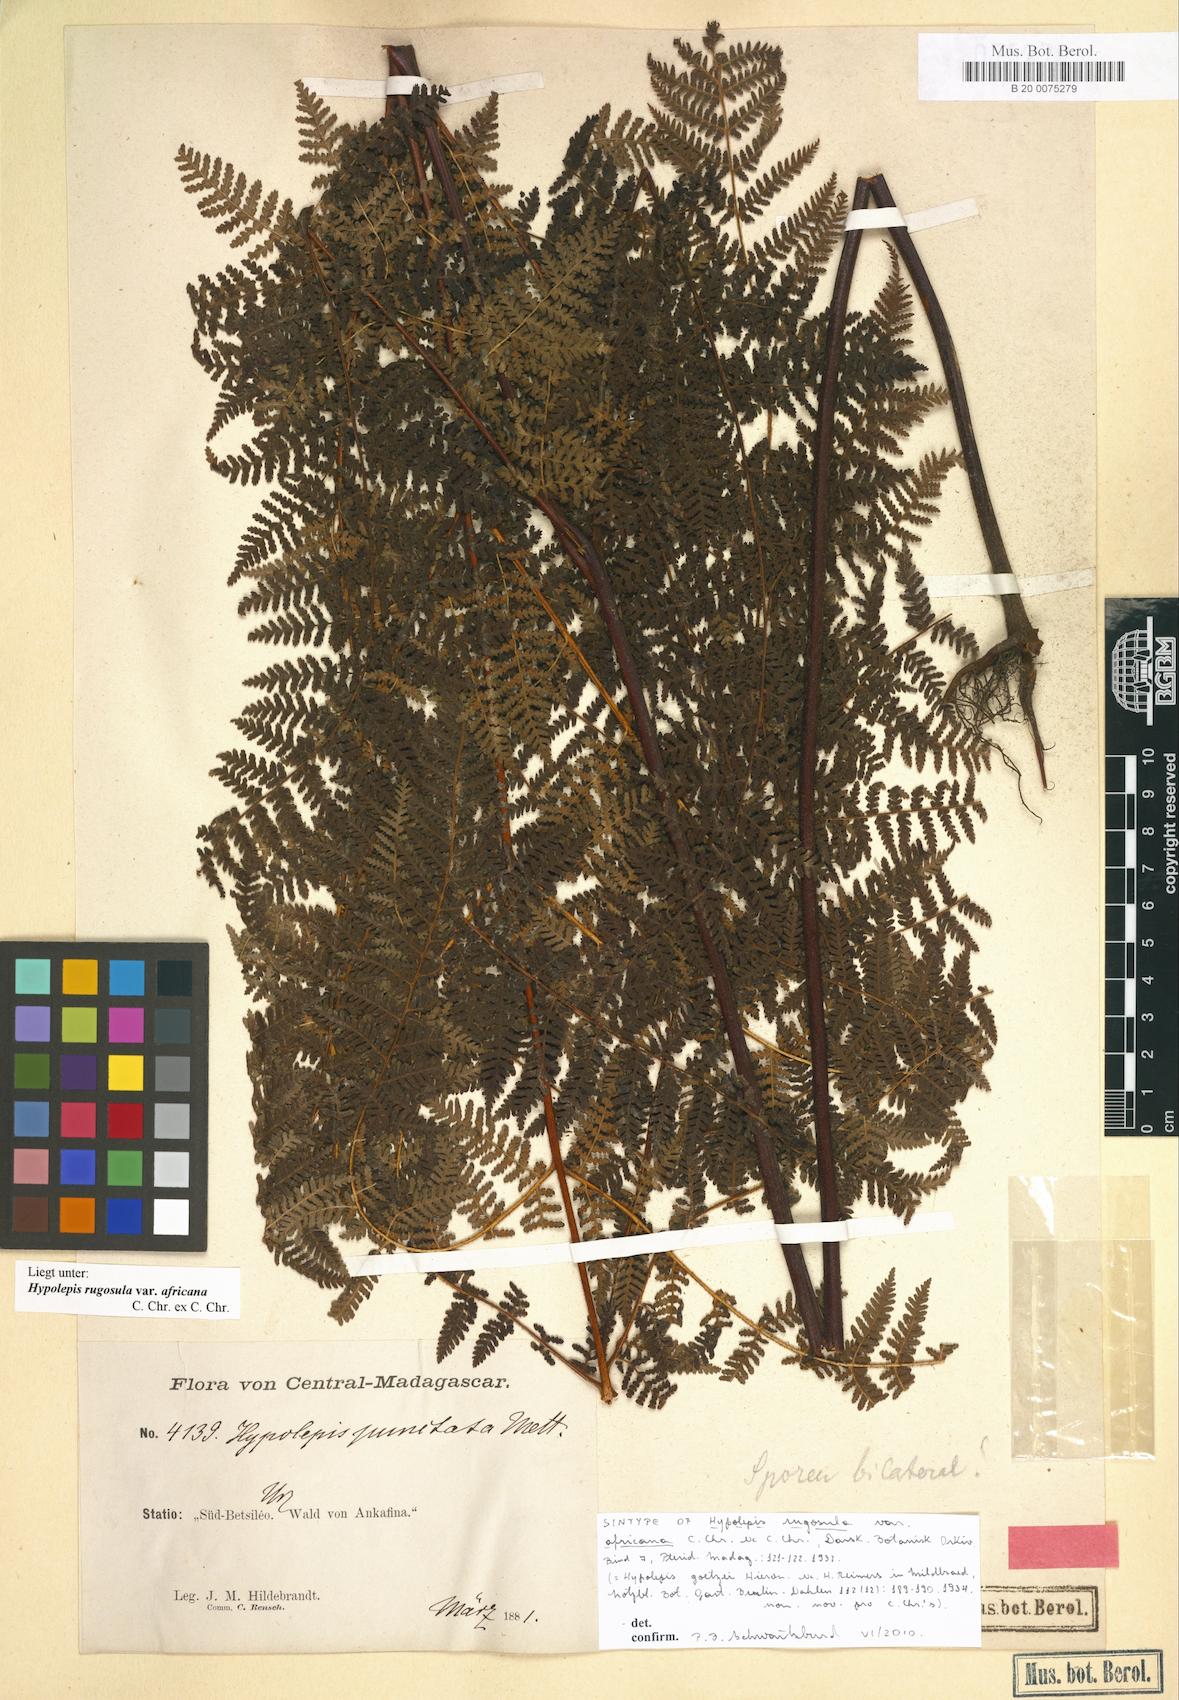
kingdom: Plantae
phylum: Tracheophyta
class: Polypodiopsida
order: Polypodiales
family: Dennstaedtiaceae
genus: Hypolepis
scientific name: Hypolepis rugosula
